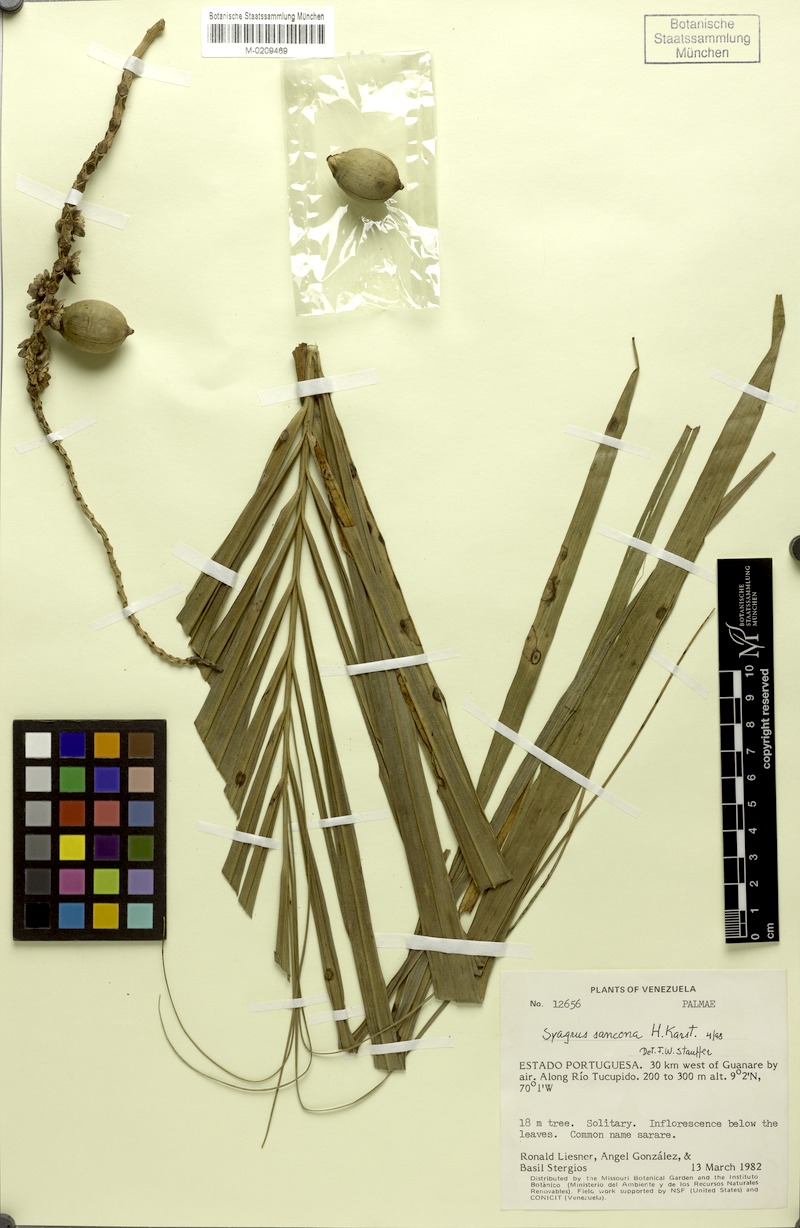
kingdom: Plantae
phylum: Tracheophyta
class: Liliopsida
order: Arecales
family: Arecaceae
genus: Syagrus
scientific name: Syagrus sancona
